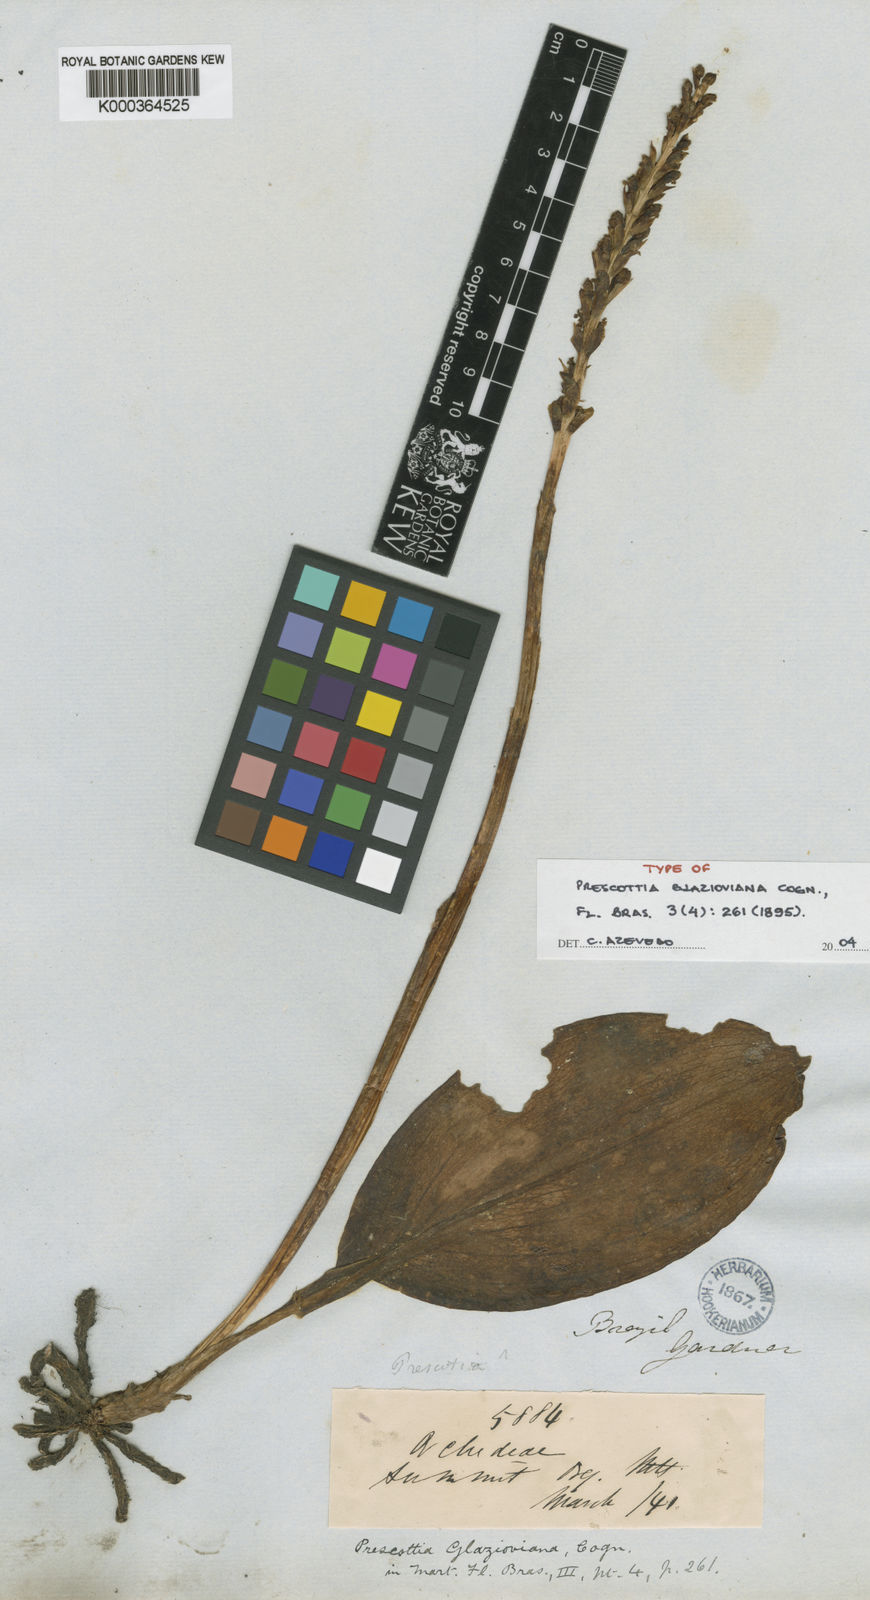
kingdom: Plantae
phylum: Tracheophyta
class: Liliopsida
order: Asparagales
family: Orchidaceae
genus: Prescottia
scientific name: Prescottia glazioviana
